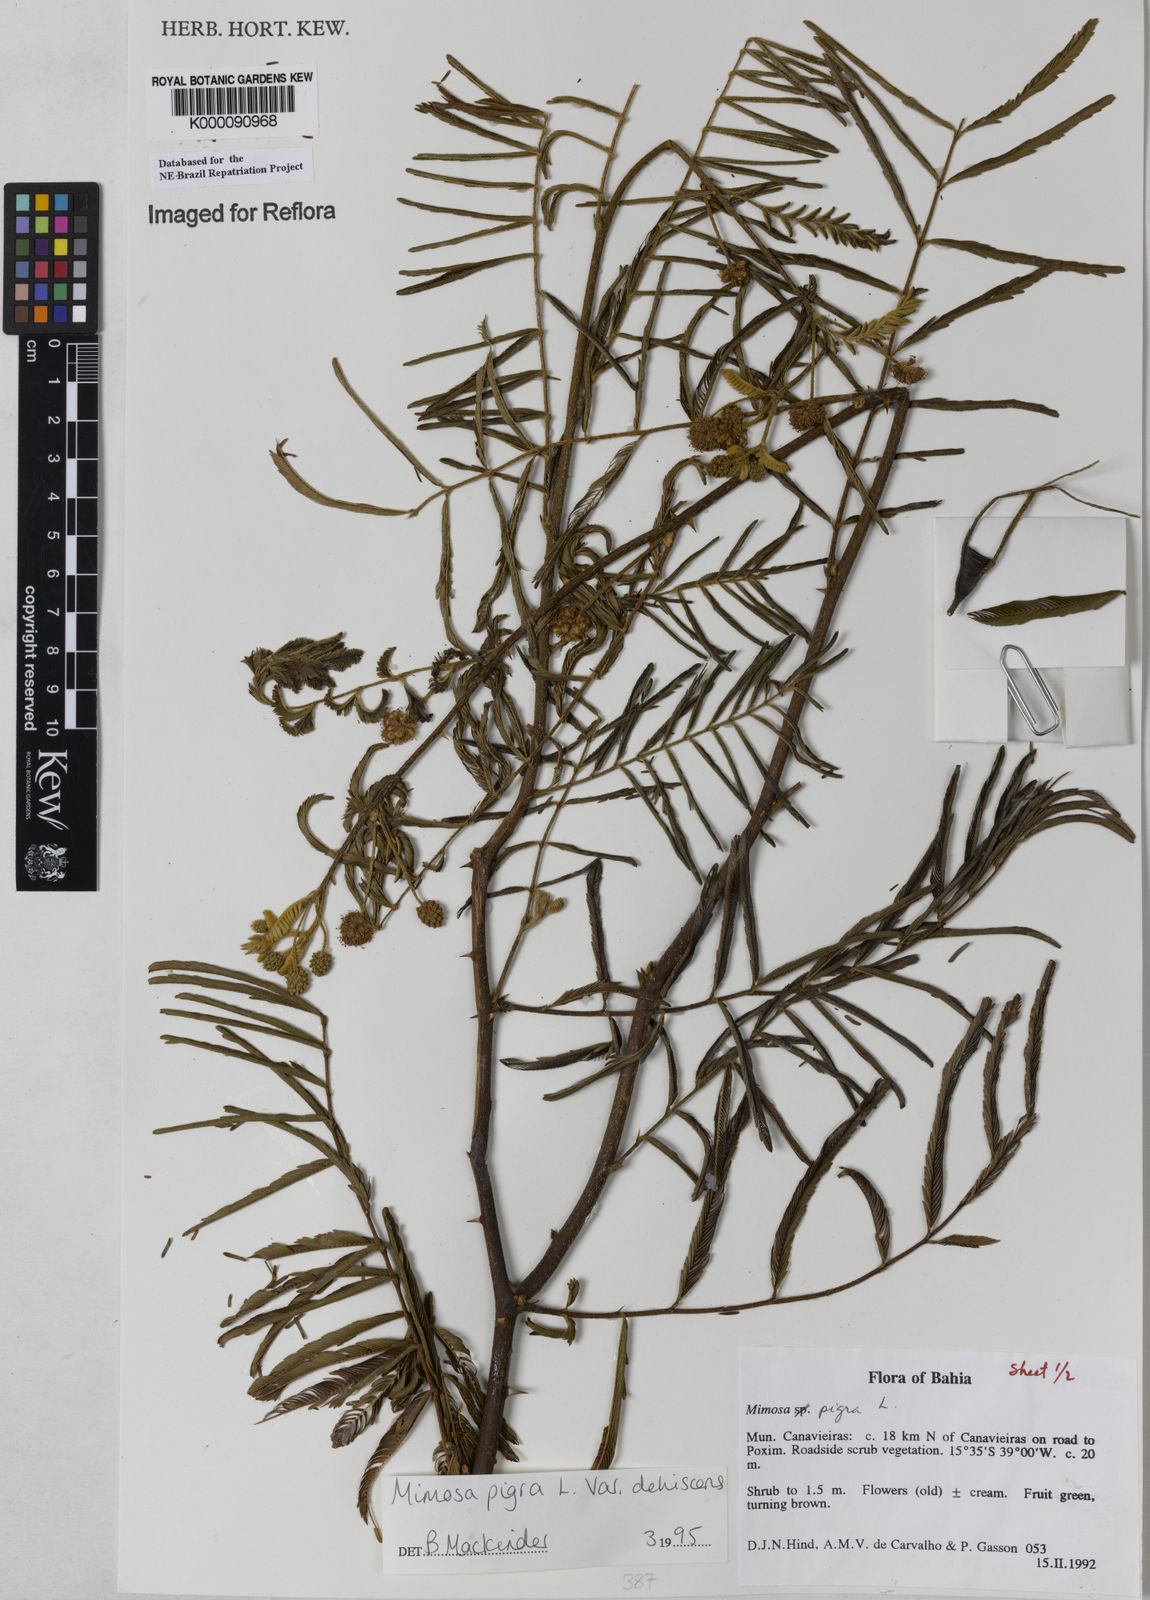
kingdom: Plantae
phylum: Tracheophyta
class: Magnoliopsida
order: Fabales
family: Fabaceae
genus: Mimosa
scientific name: Mimosa pigra
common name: Black mimosa
